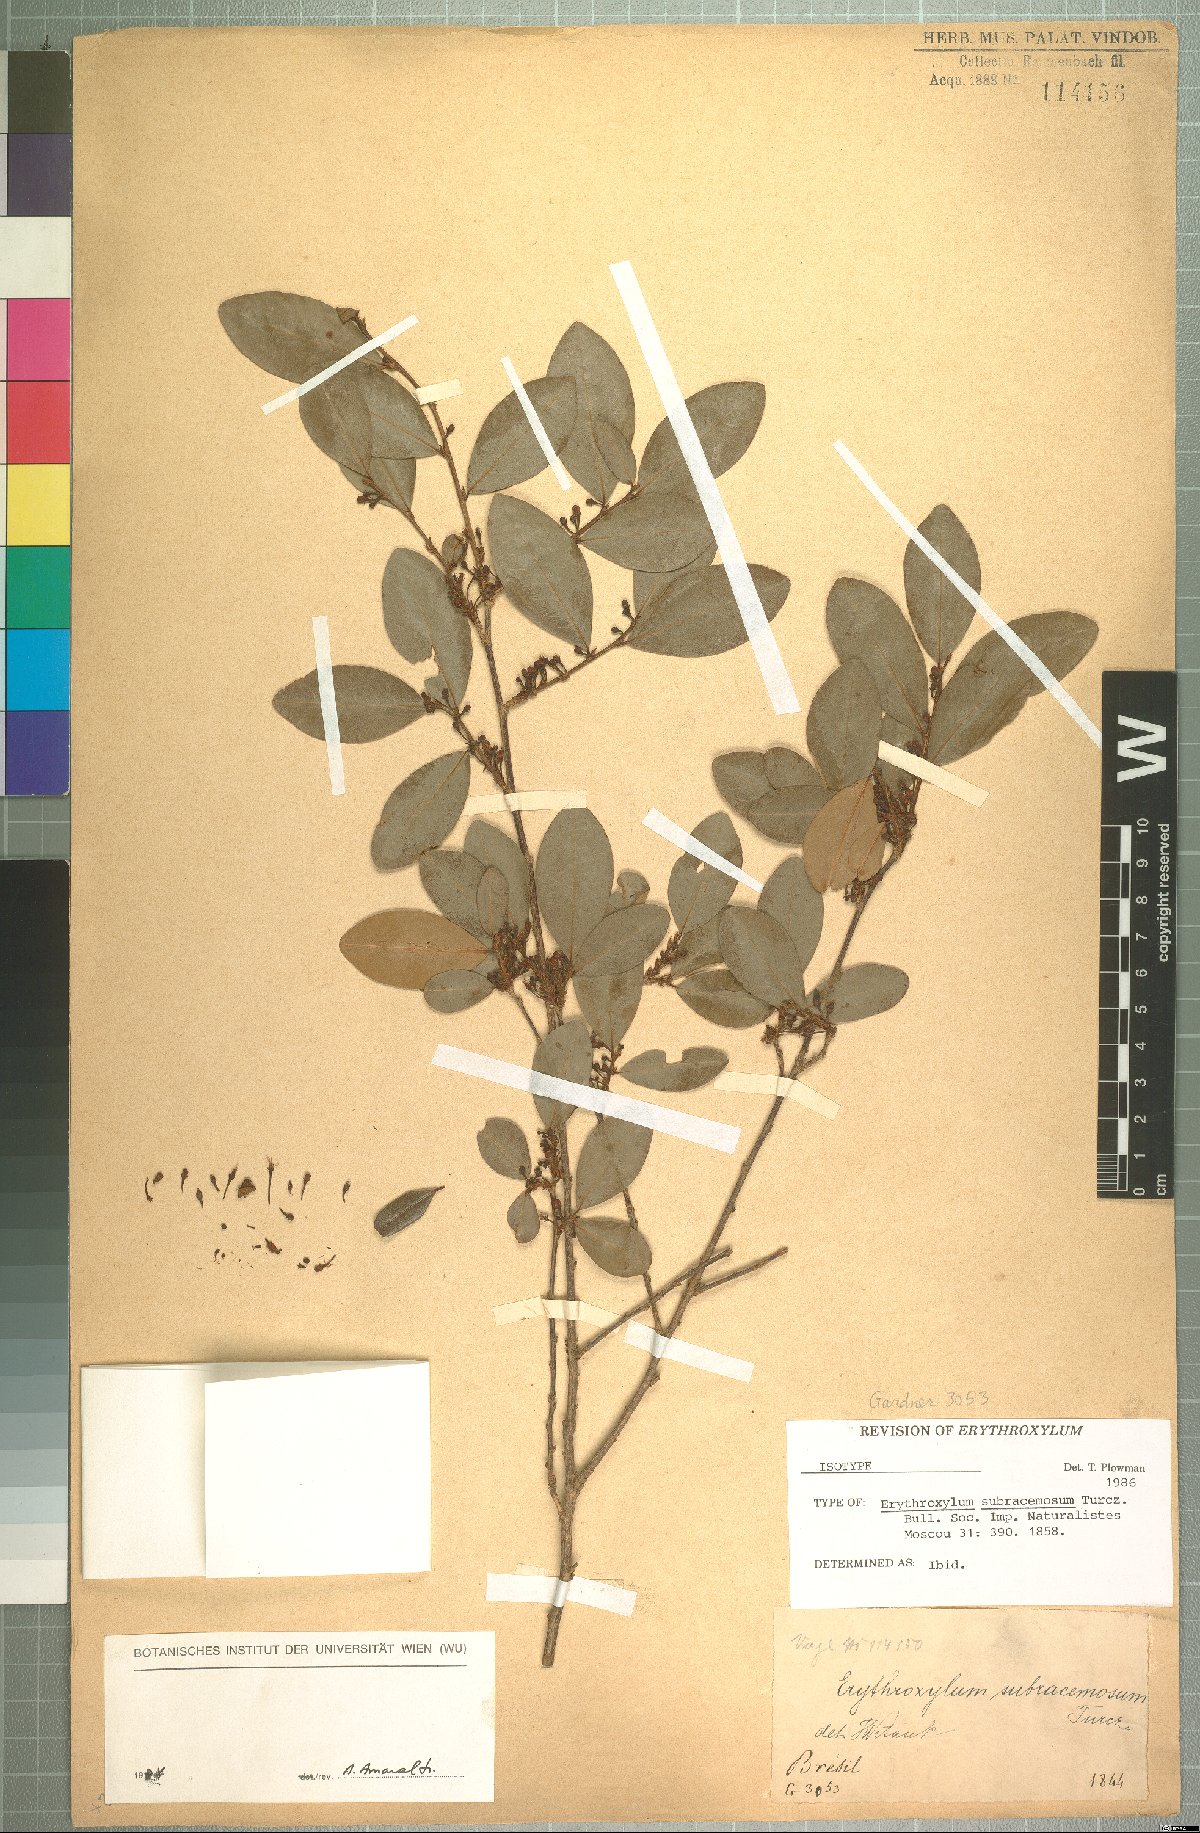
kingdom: Plantae
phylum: Tracheophyta
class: Magnoliopsida
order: Malpighiales
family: Erythroxylaceae
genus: Erythroxylum
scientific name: Erythroxylum subracemosum
